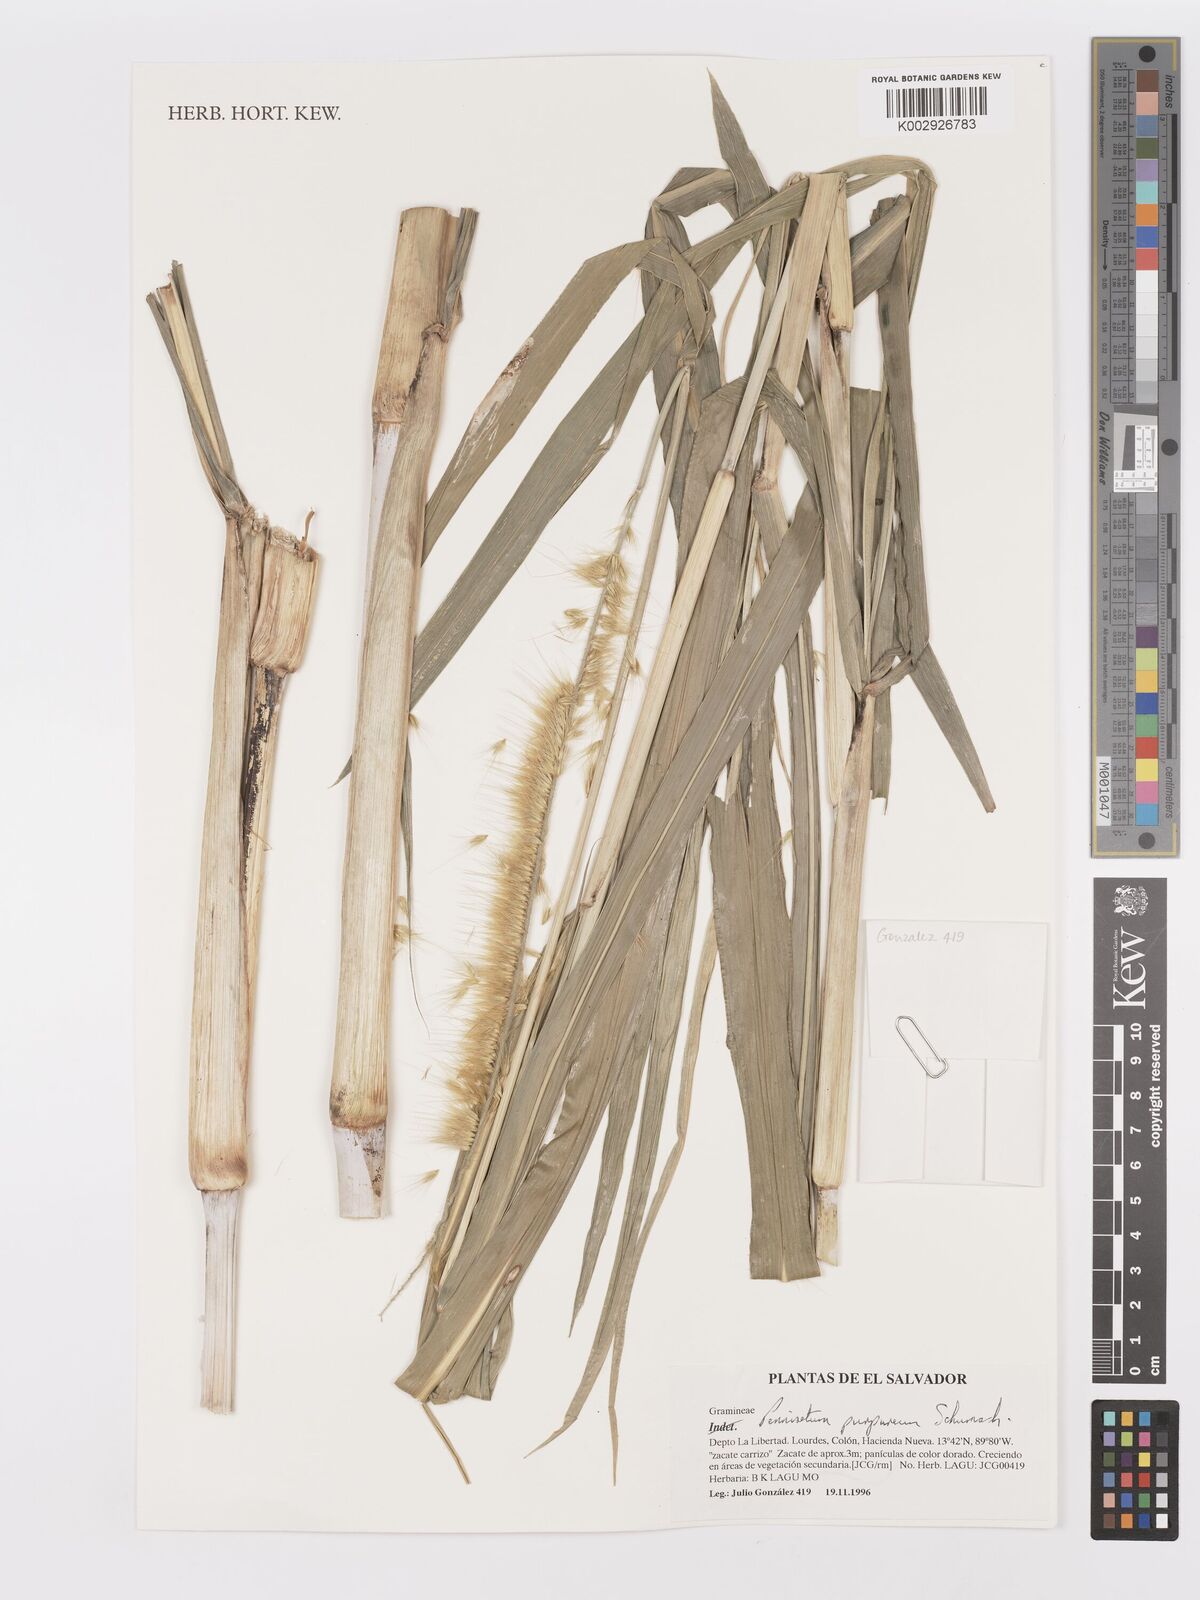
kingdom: Plantae
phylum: Tracheophyta
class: Liliopsida
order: Poales
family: Poaceae
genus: Cenchrus
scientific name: Cenchrus purpureus
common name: Elephant grass
